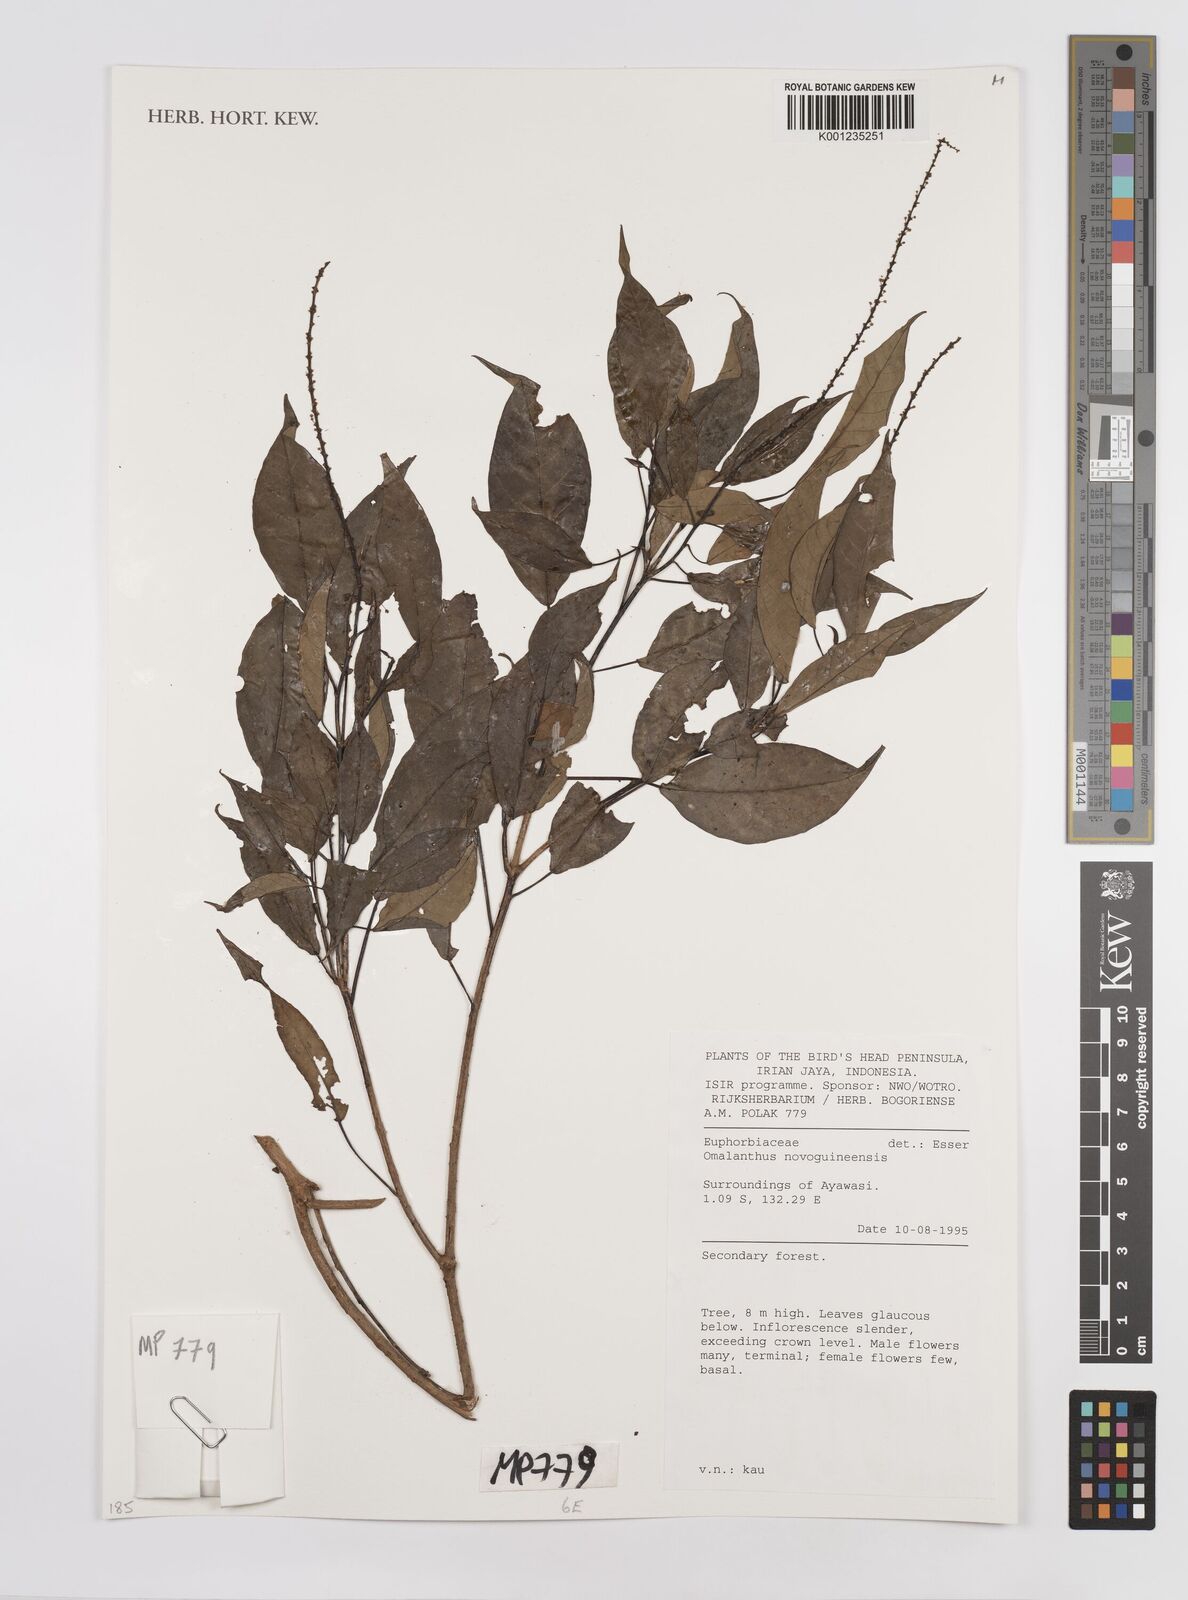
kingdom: Plantae
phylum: Tracheophyta
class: Magnoliopsida
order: Malpighiales
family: Euphorbiaceae
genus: Homalanthus
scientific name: Homalanthus novoguineensis
